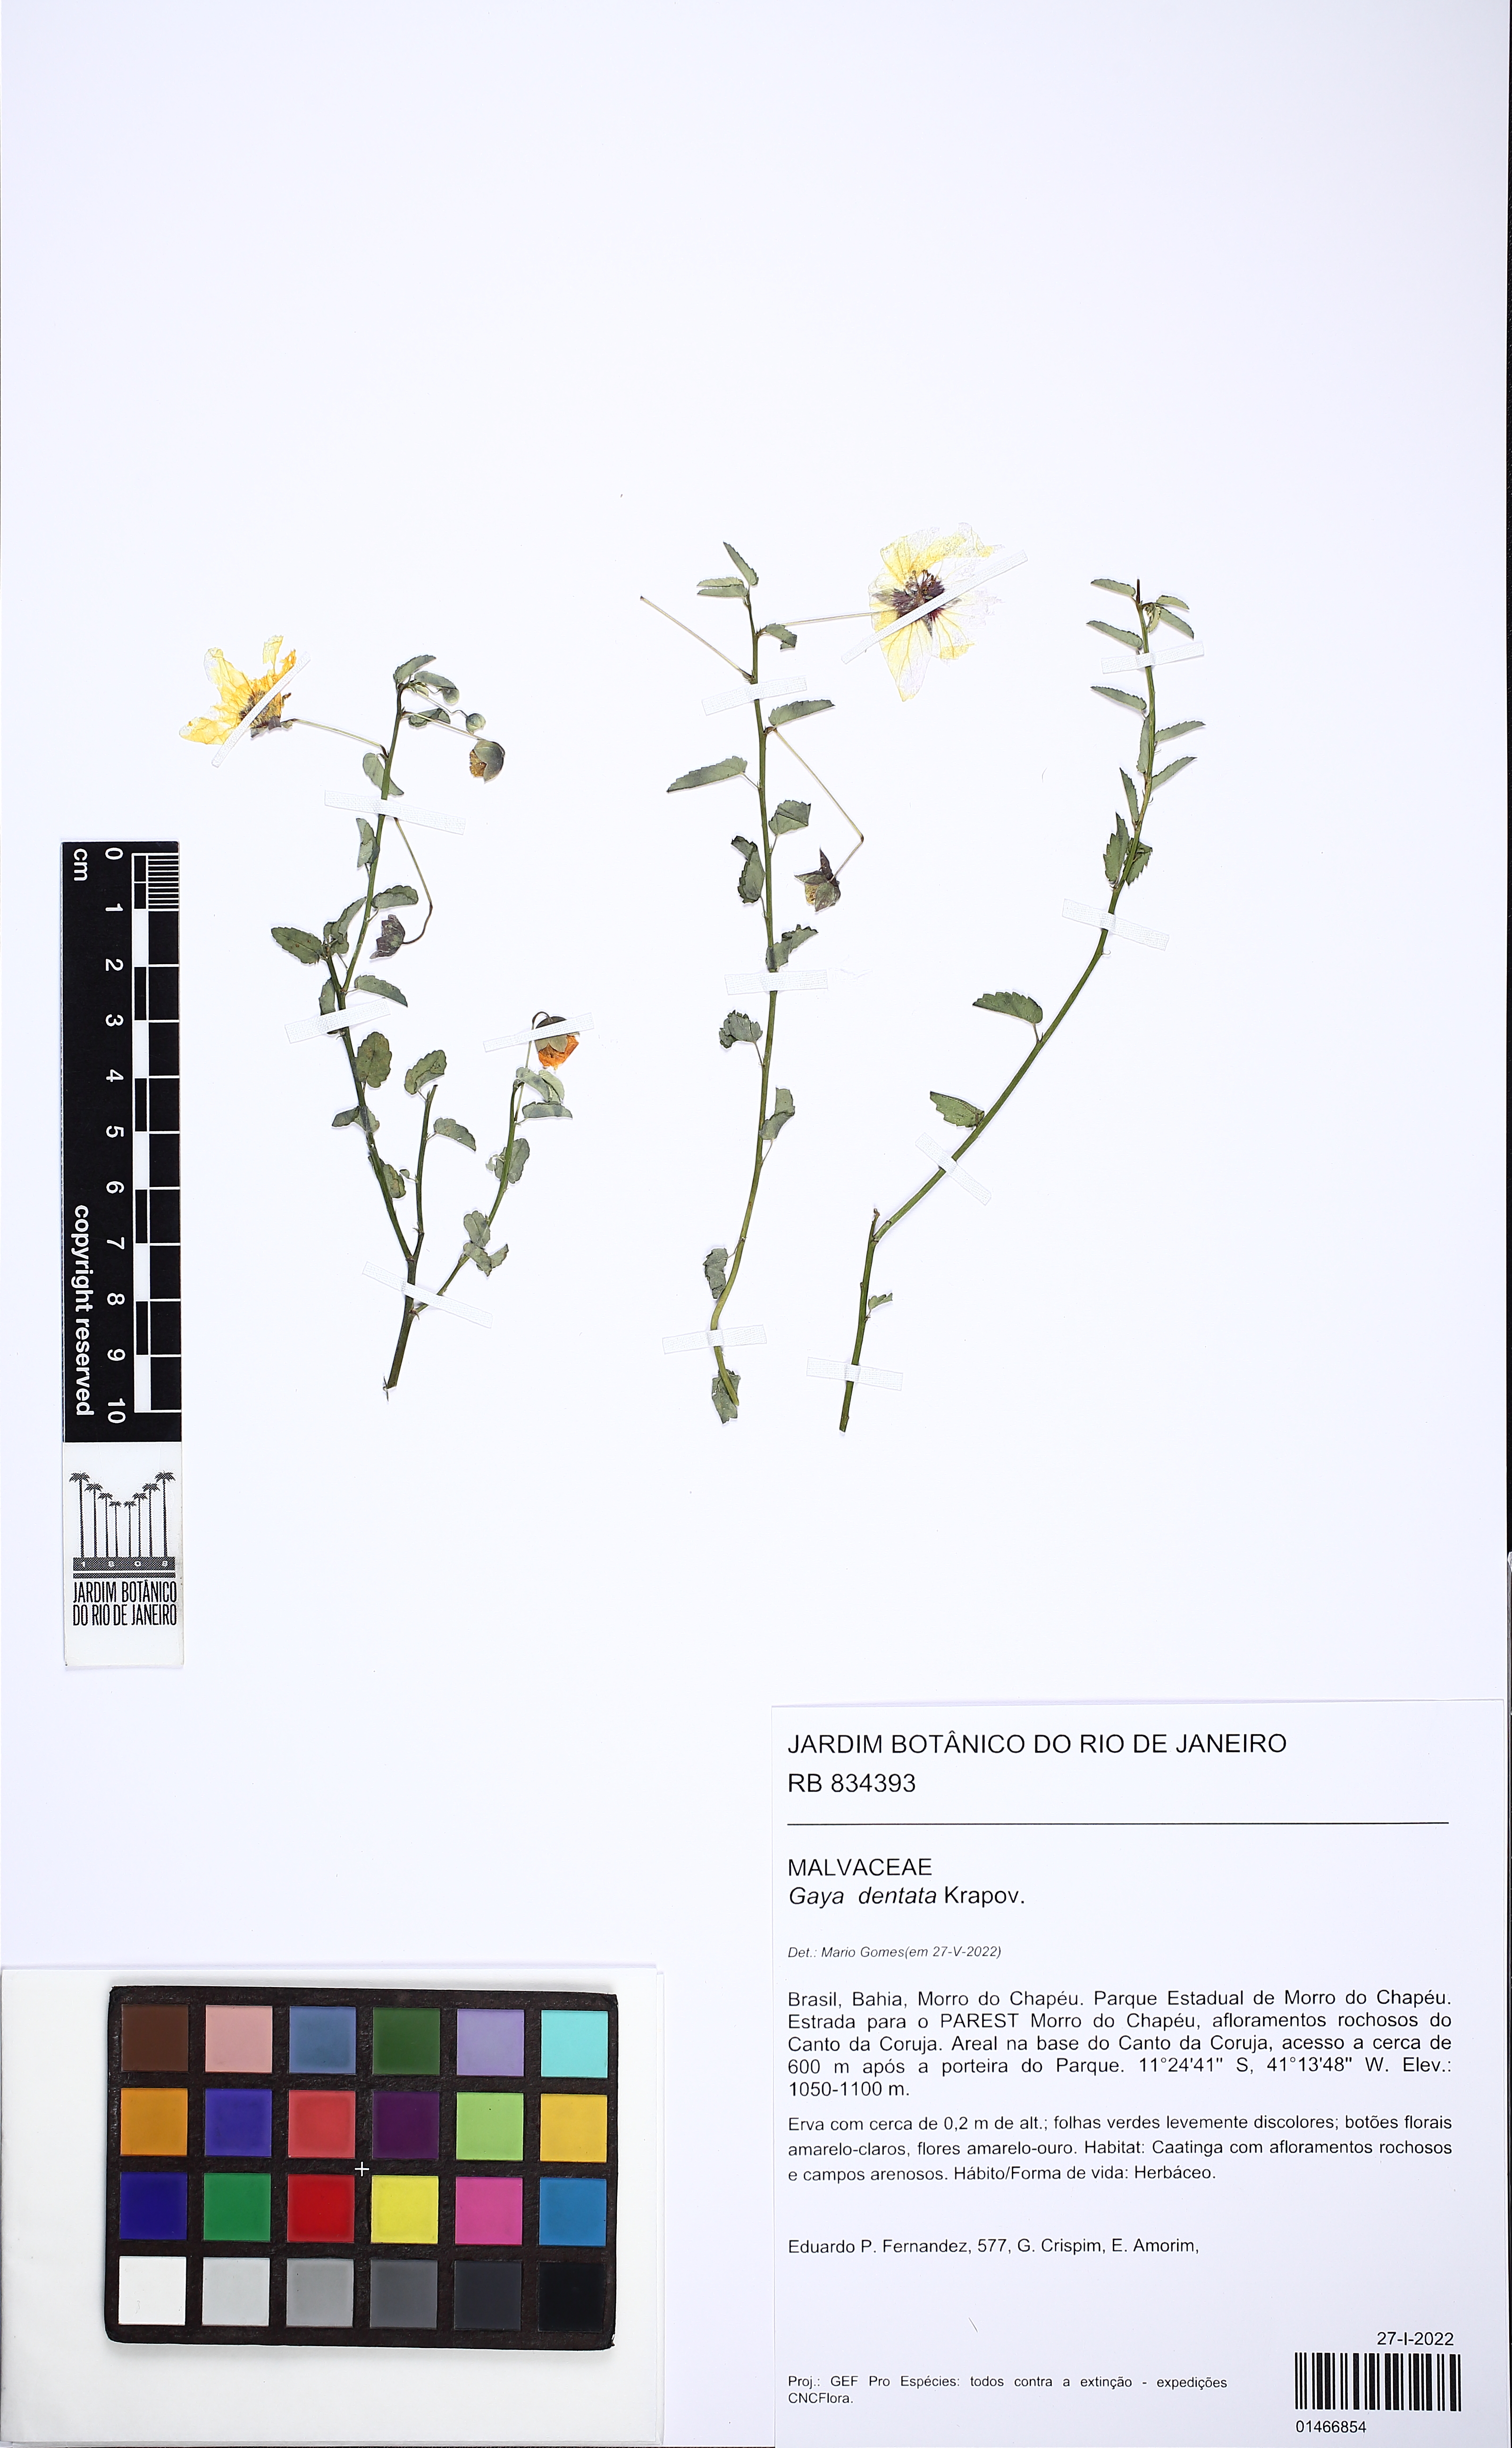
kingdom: Plantae
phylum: Tracheophyta
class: Magnoliopsida
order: Malvales
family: Malvaceae
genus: Gaya
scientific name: Gaya dentata
